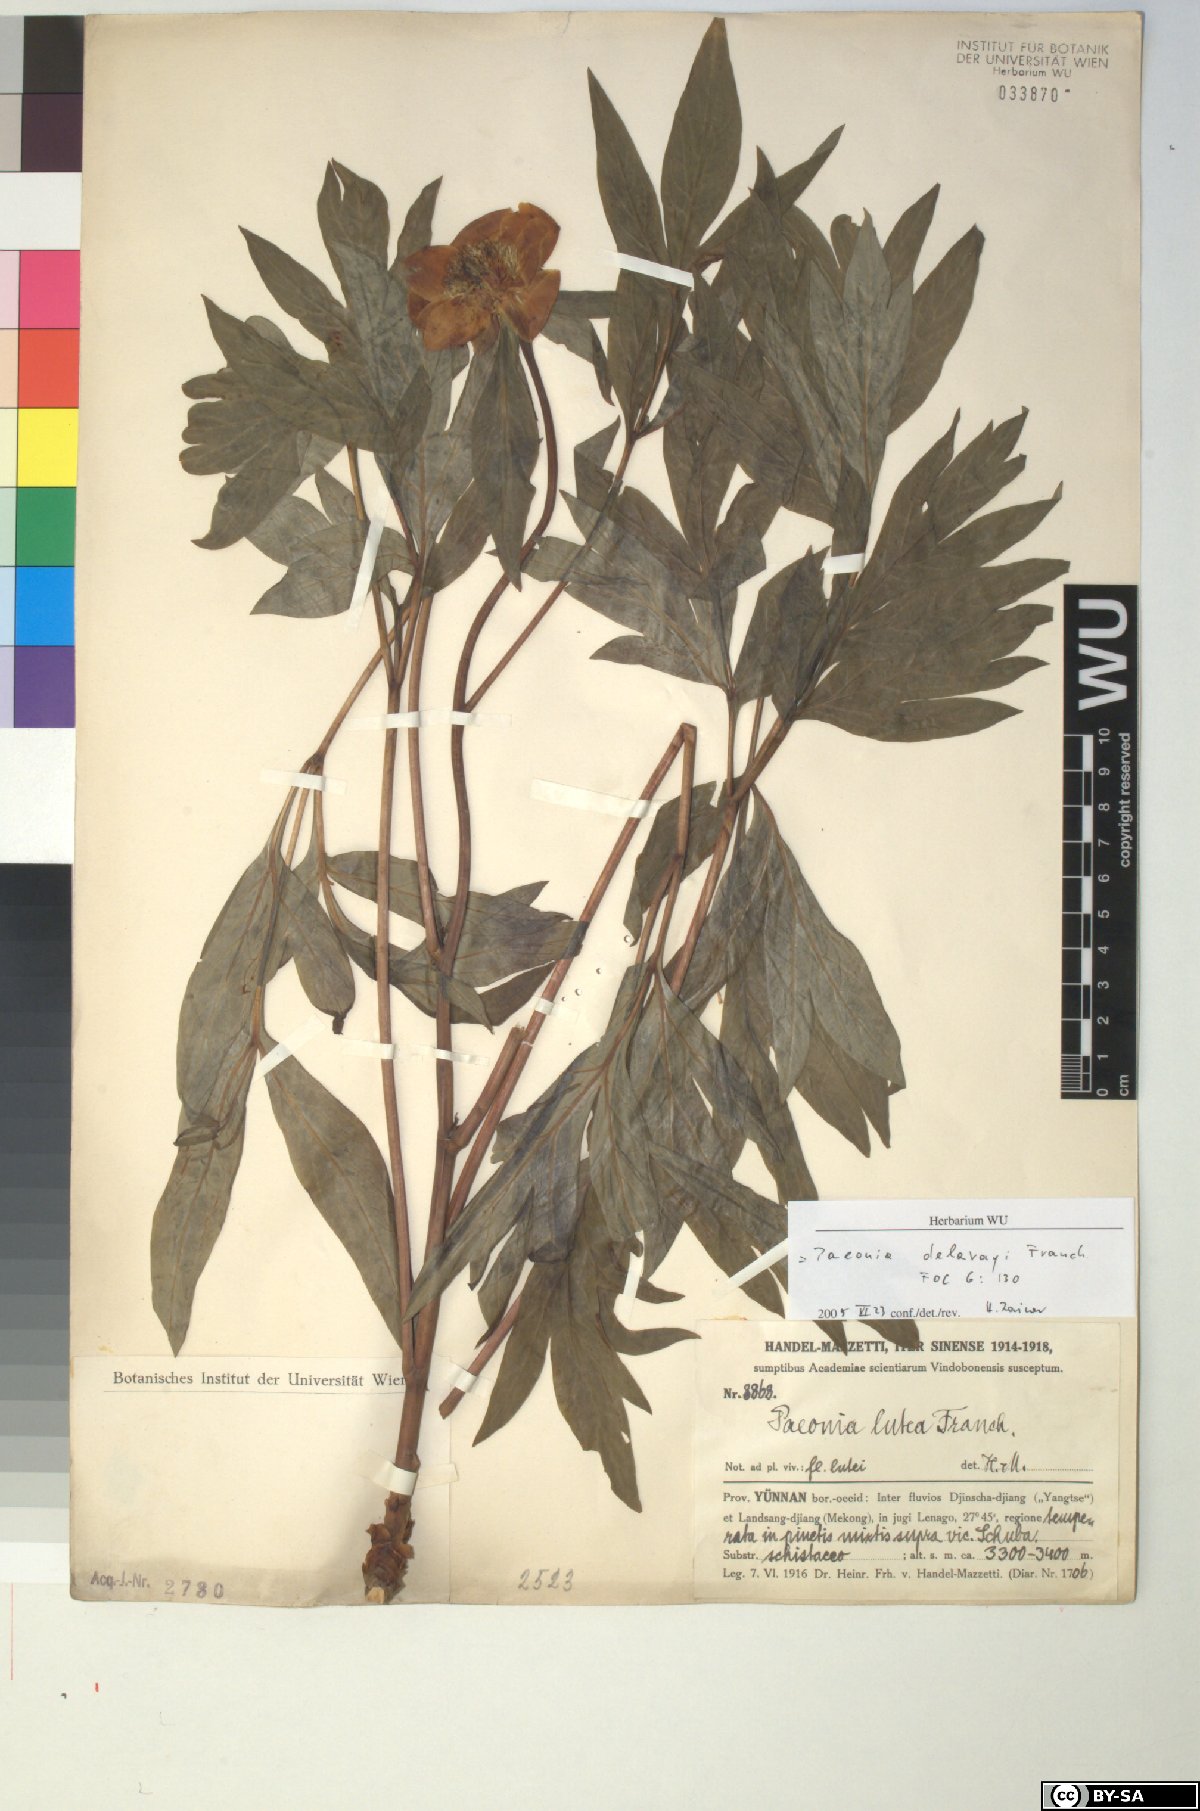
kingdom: Plantae
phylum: Tracheophyta
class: Magnoliopsida
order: Saxifragales
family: Paeoniaceae
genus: Paeonia
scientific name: Paeonia delavayi
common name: Dian mu dan
